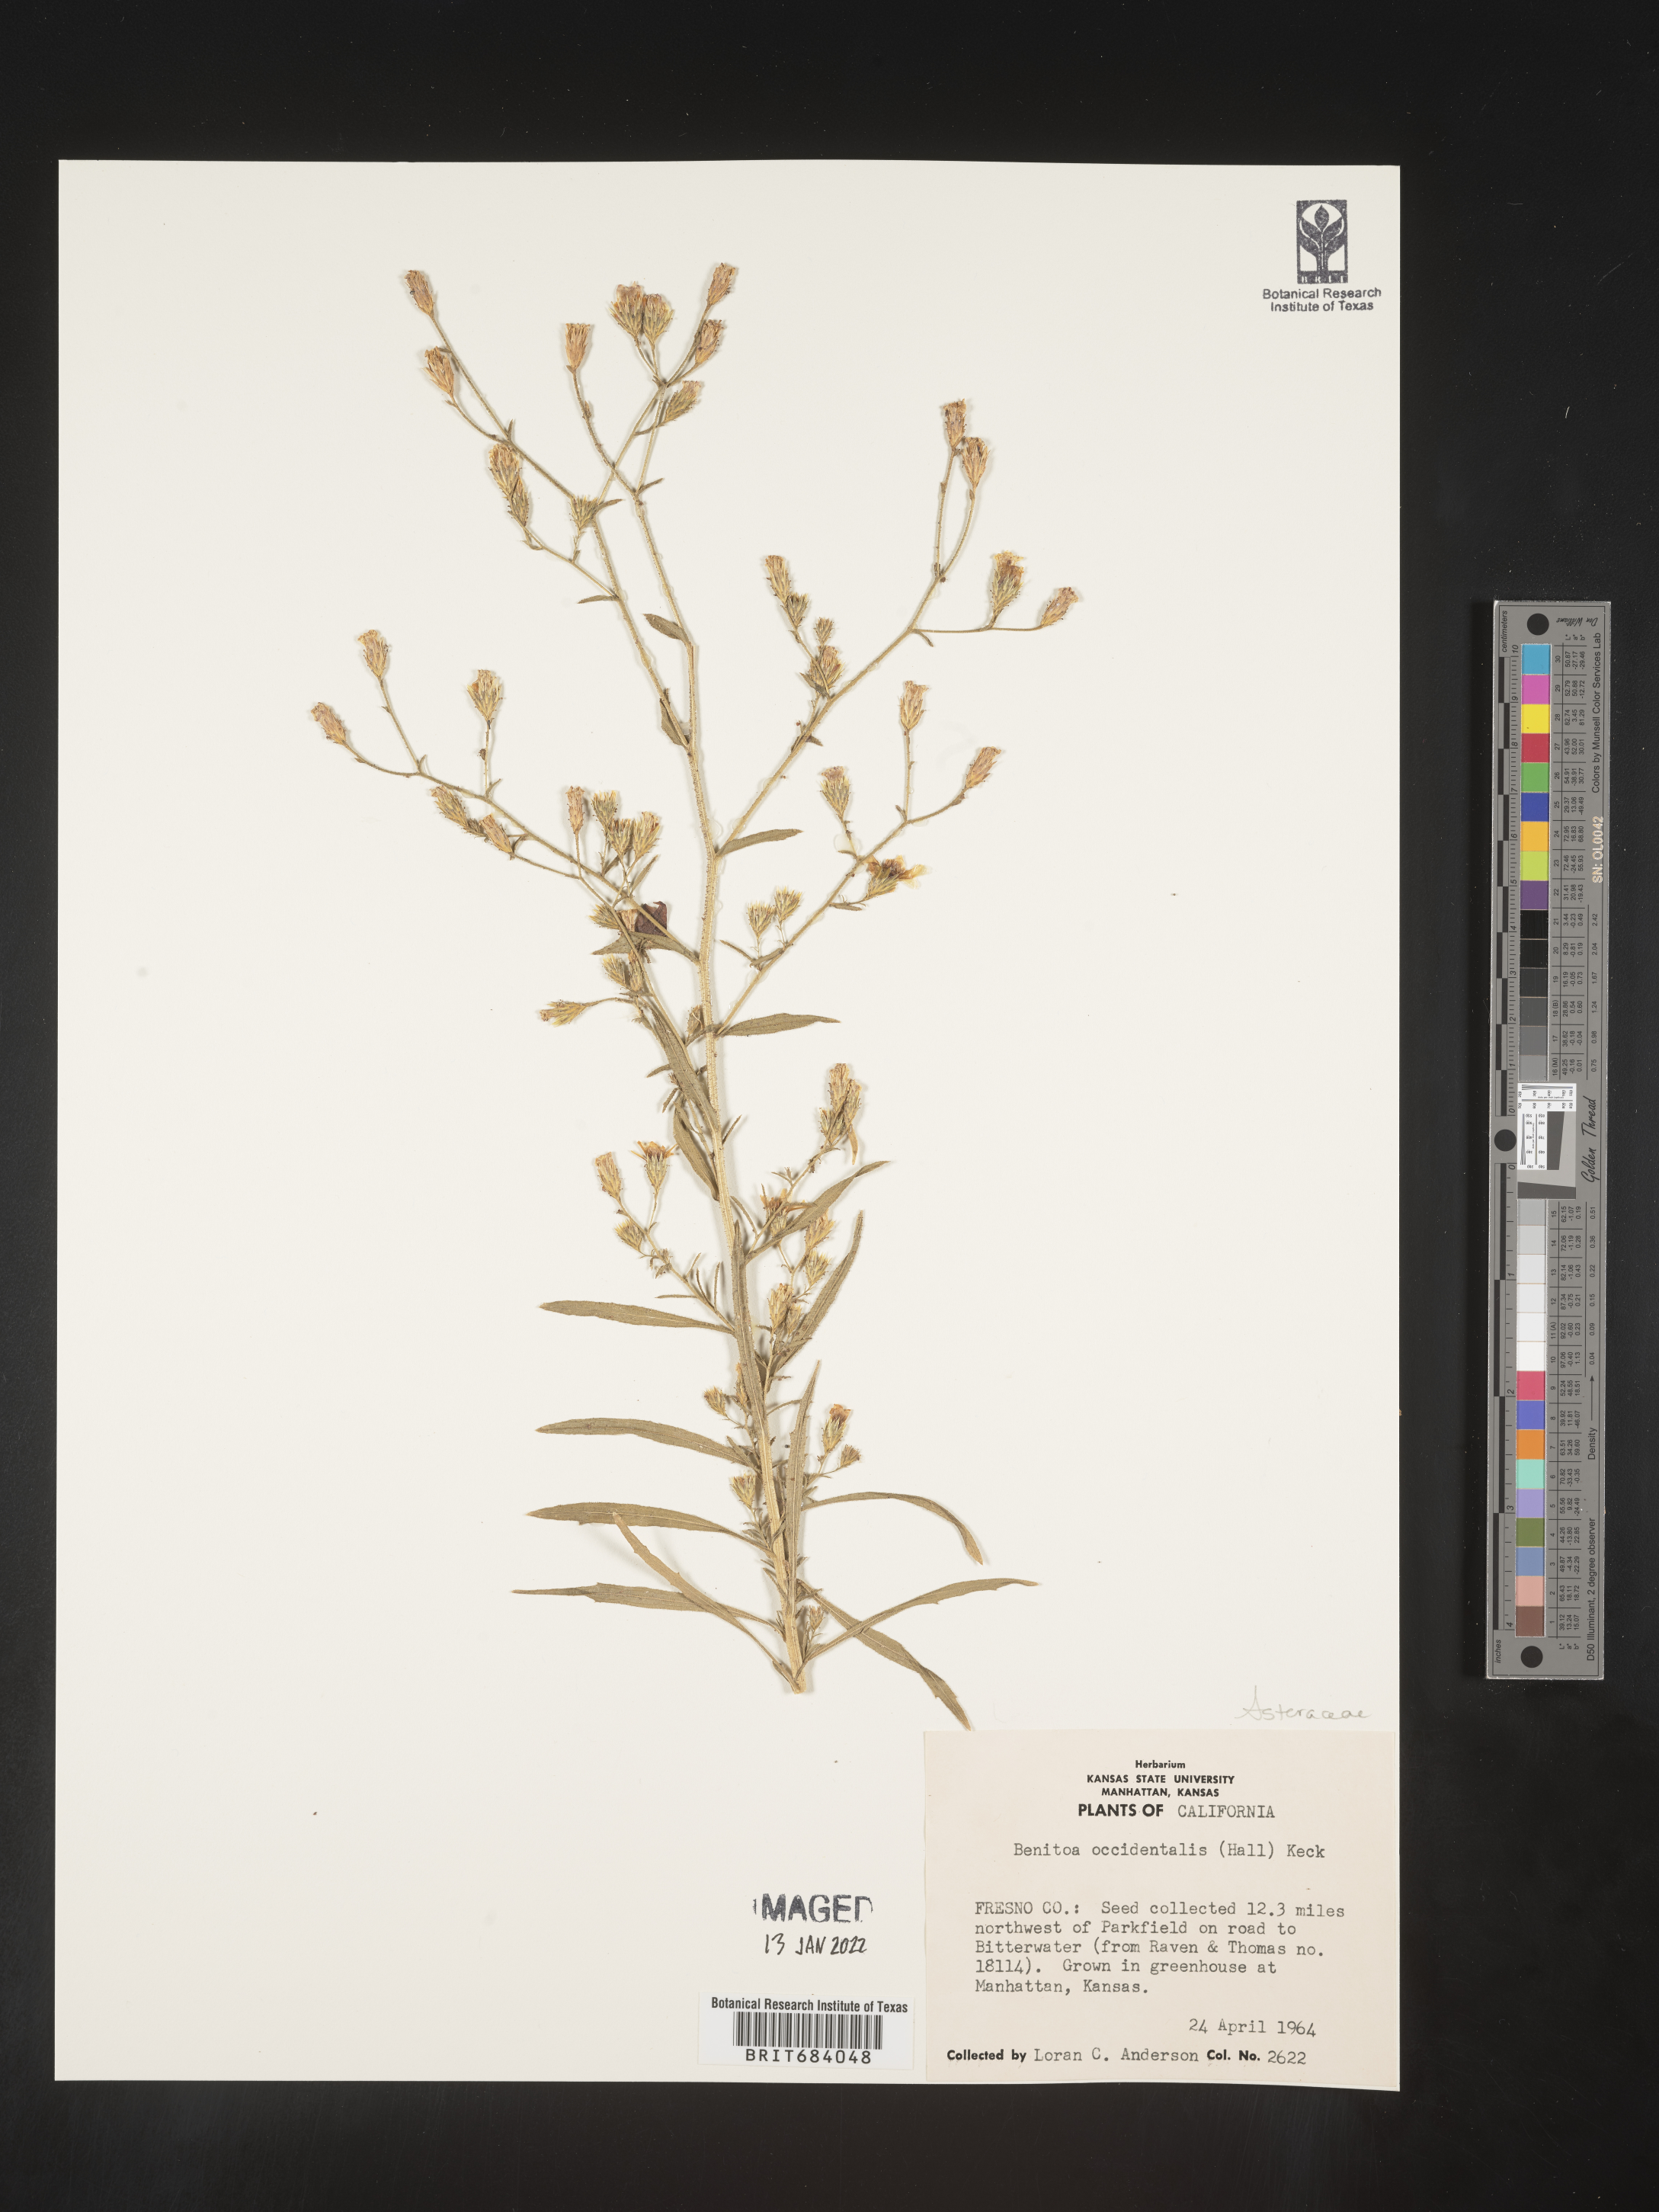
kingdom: Plantae
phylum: Tracheophyta
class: Magnoliopsida
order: Asterales
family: Asteraceae
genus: Benitoa
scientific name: Benitoa
